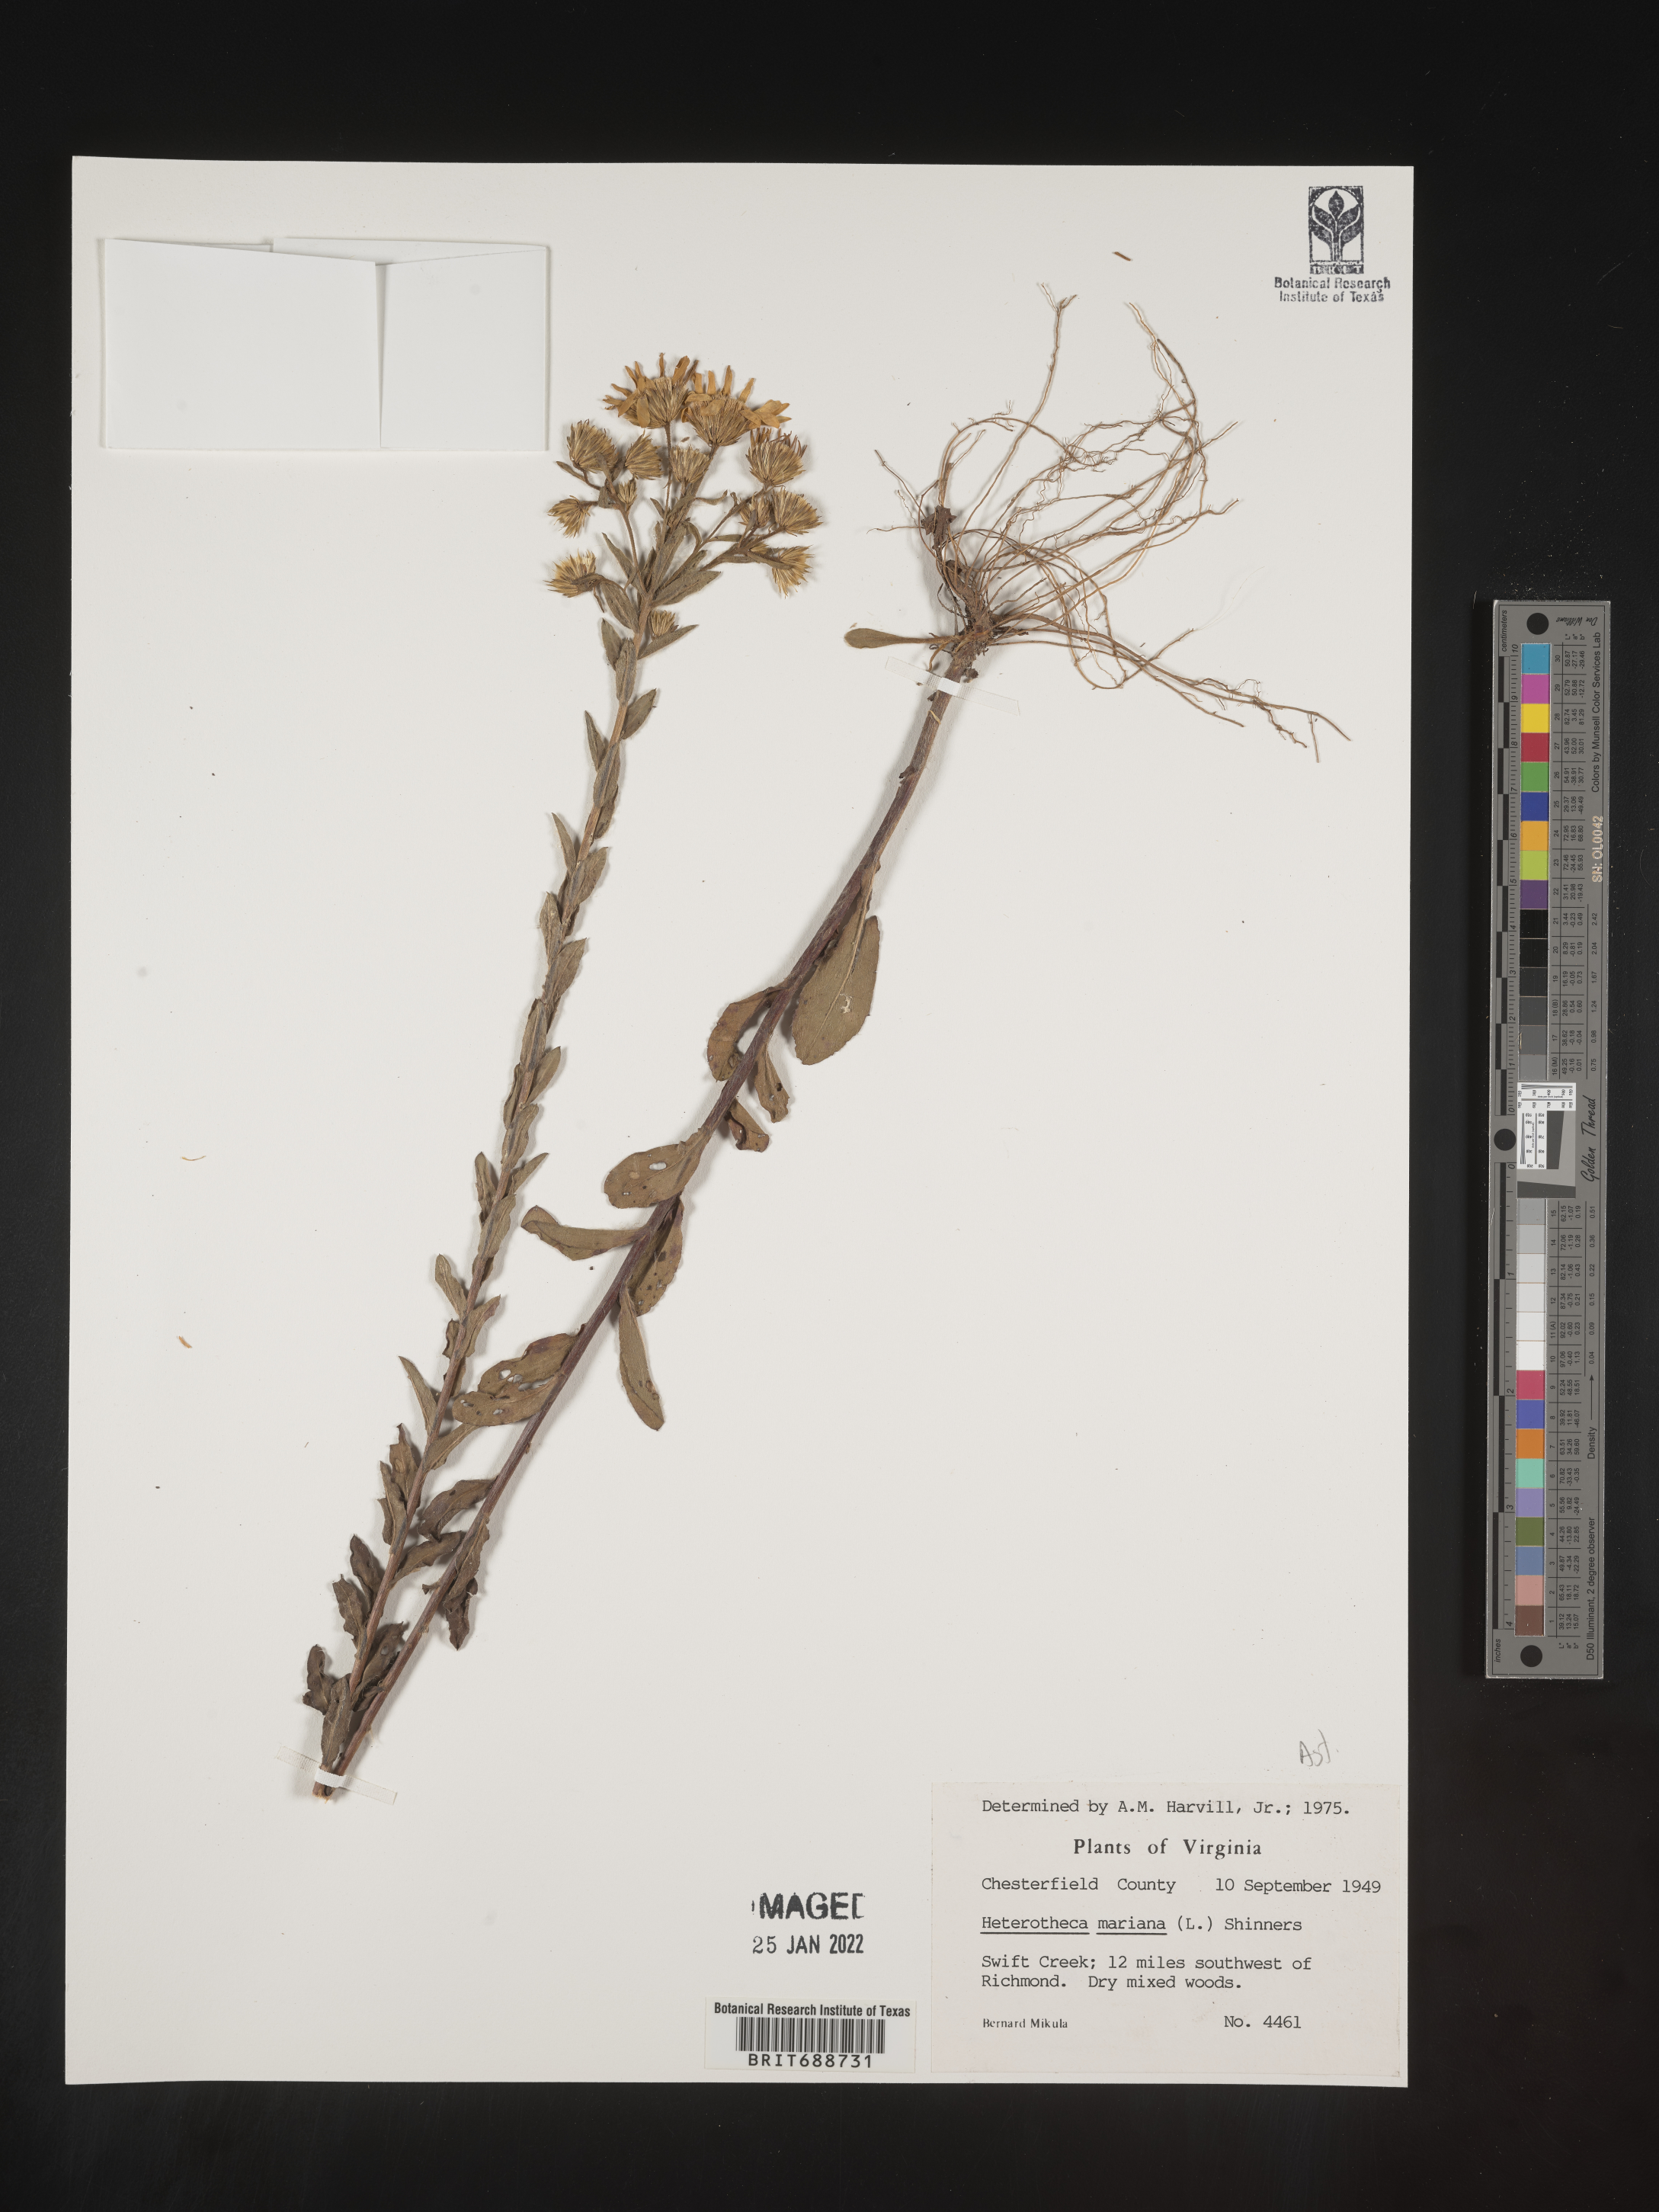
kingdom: Plantae
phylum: Tracheophyta
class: Magnoliopsida
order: Asterales
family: Asteraceae
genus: Chrysopsis
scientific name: Chrysopsis mariana
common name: Maryland golden-aster
